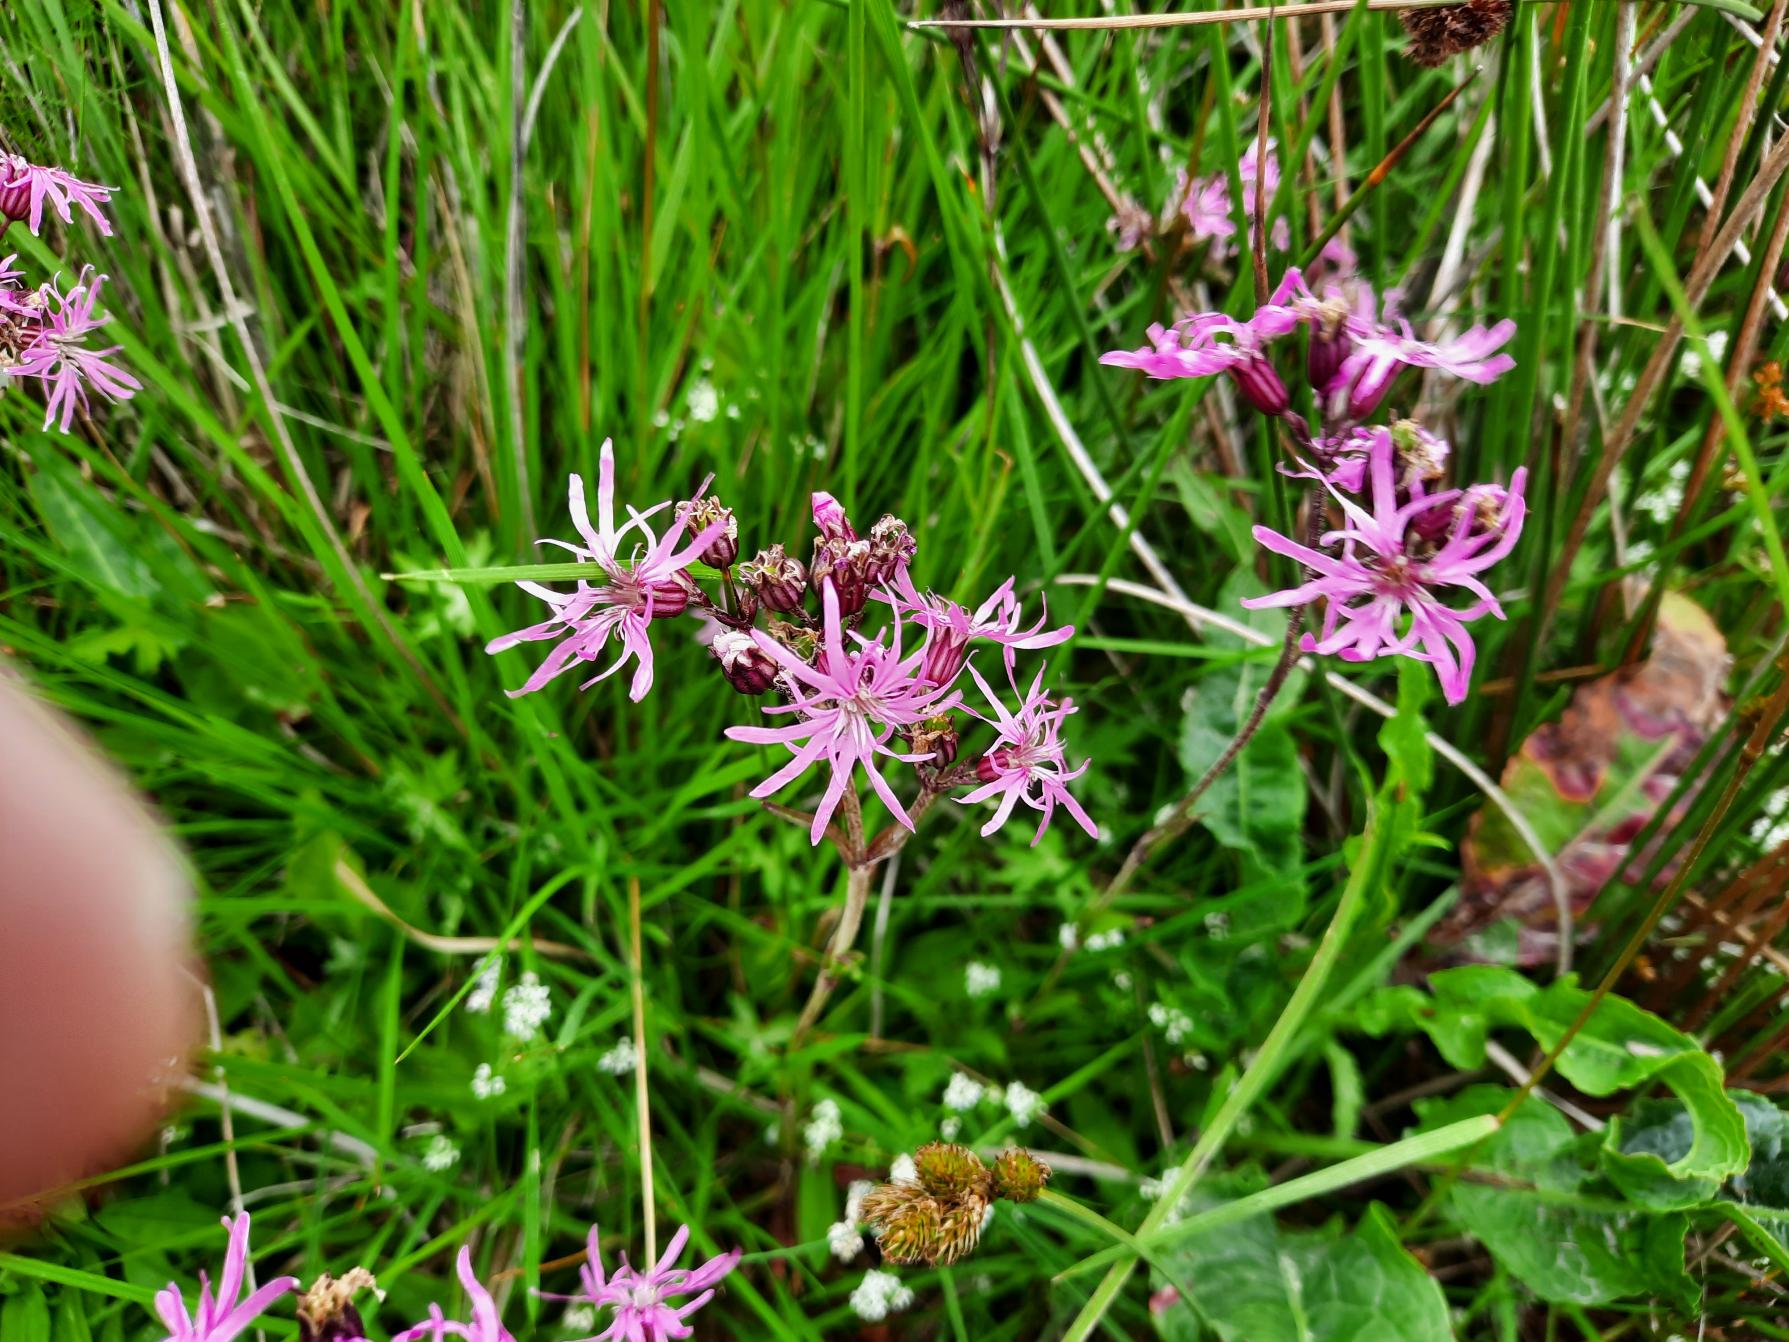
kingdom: Plantae
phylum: Tracheophyta
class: Magnoliopsida
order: Caryophyllales
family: Caryophyllaceae
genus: Silene
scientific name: Silene flos-cuculi
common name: Trævlekrone
